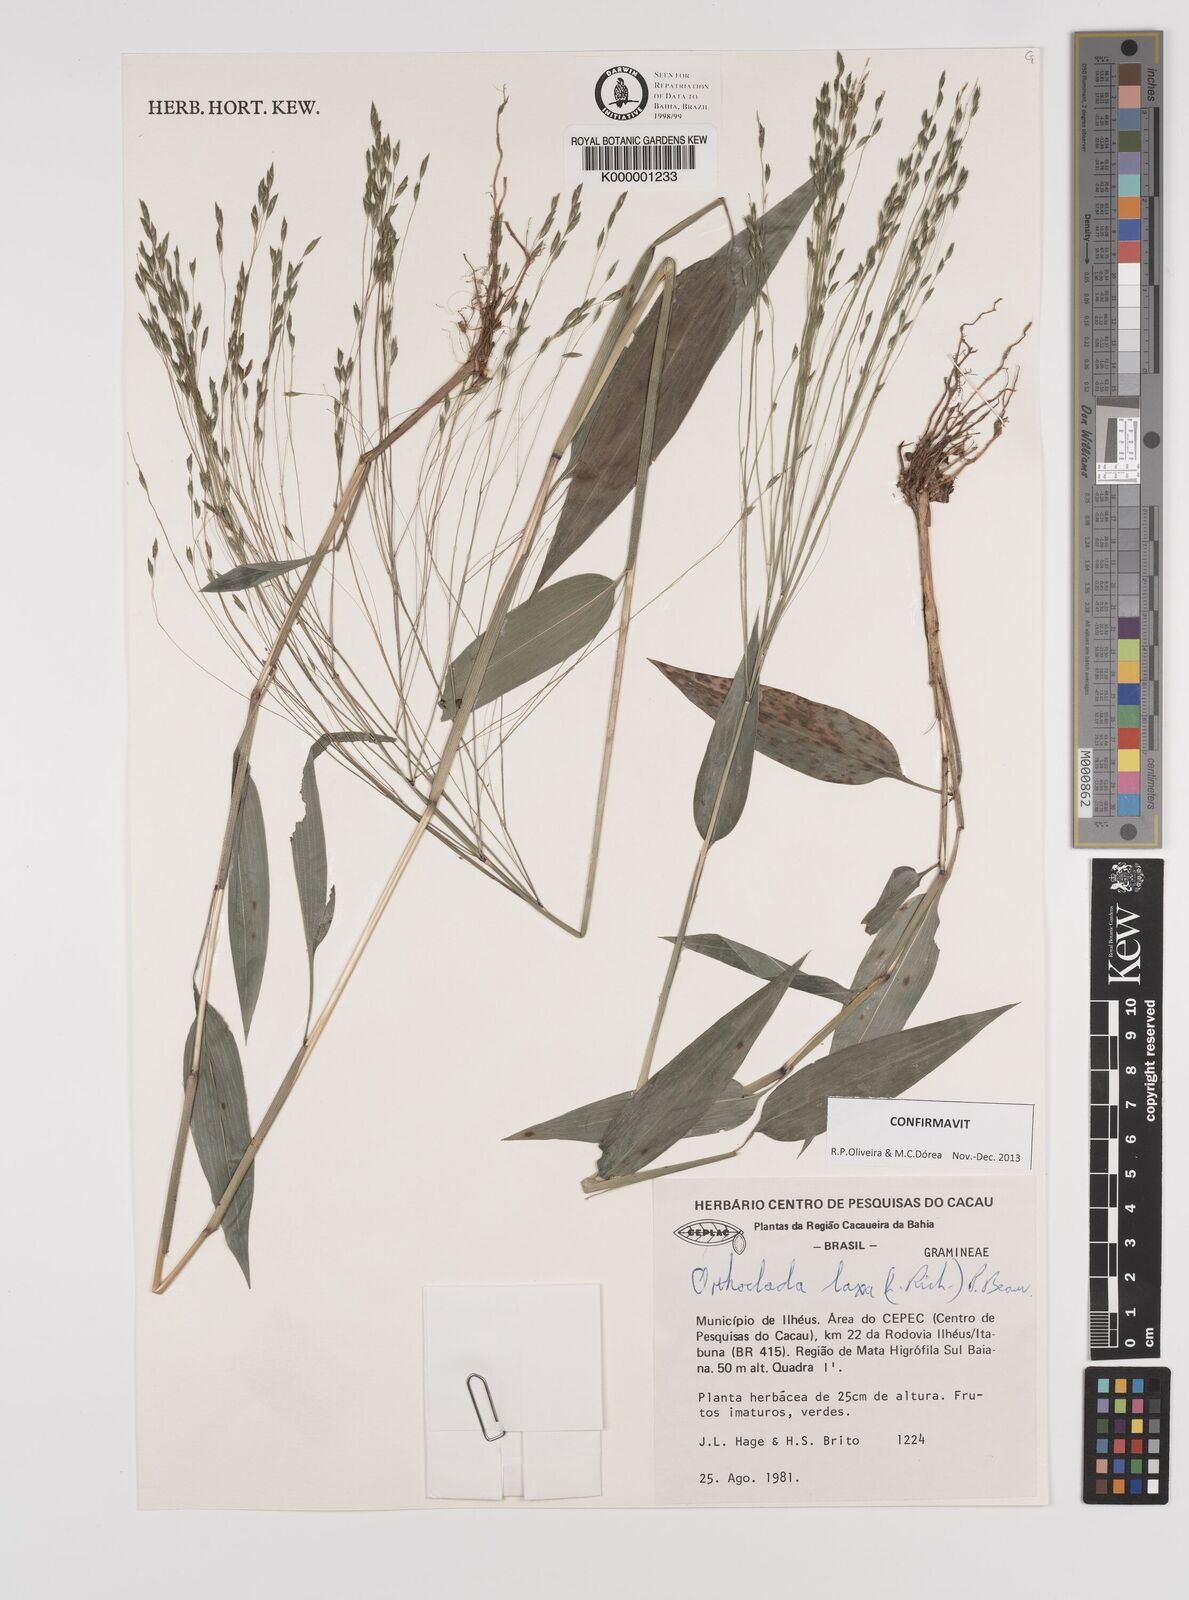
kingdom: Plantae
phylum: Tracheophyta
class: Liliopsida
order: Poales
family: Poaceae
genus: Orthoclada
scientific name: Orthoclada laxa
